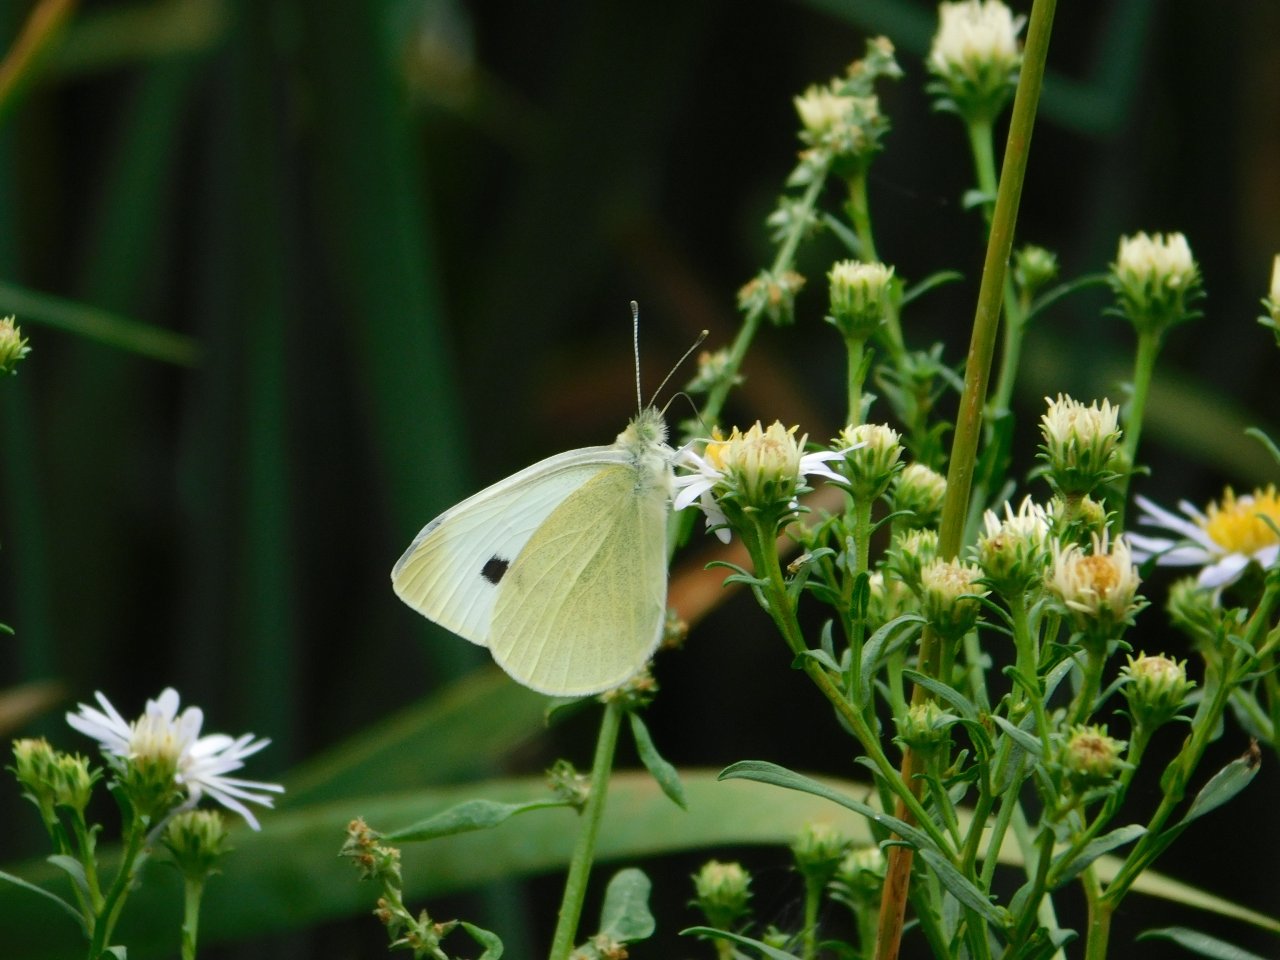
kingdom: Animalia
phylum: Arthropoda
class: Insecta
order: Lepidoptera
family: Pieridae
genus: Pieris
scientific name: Pieris rapae
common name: Cabbage White
